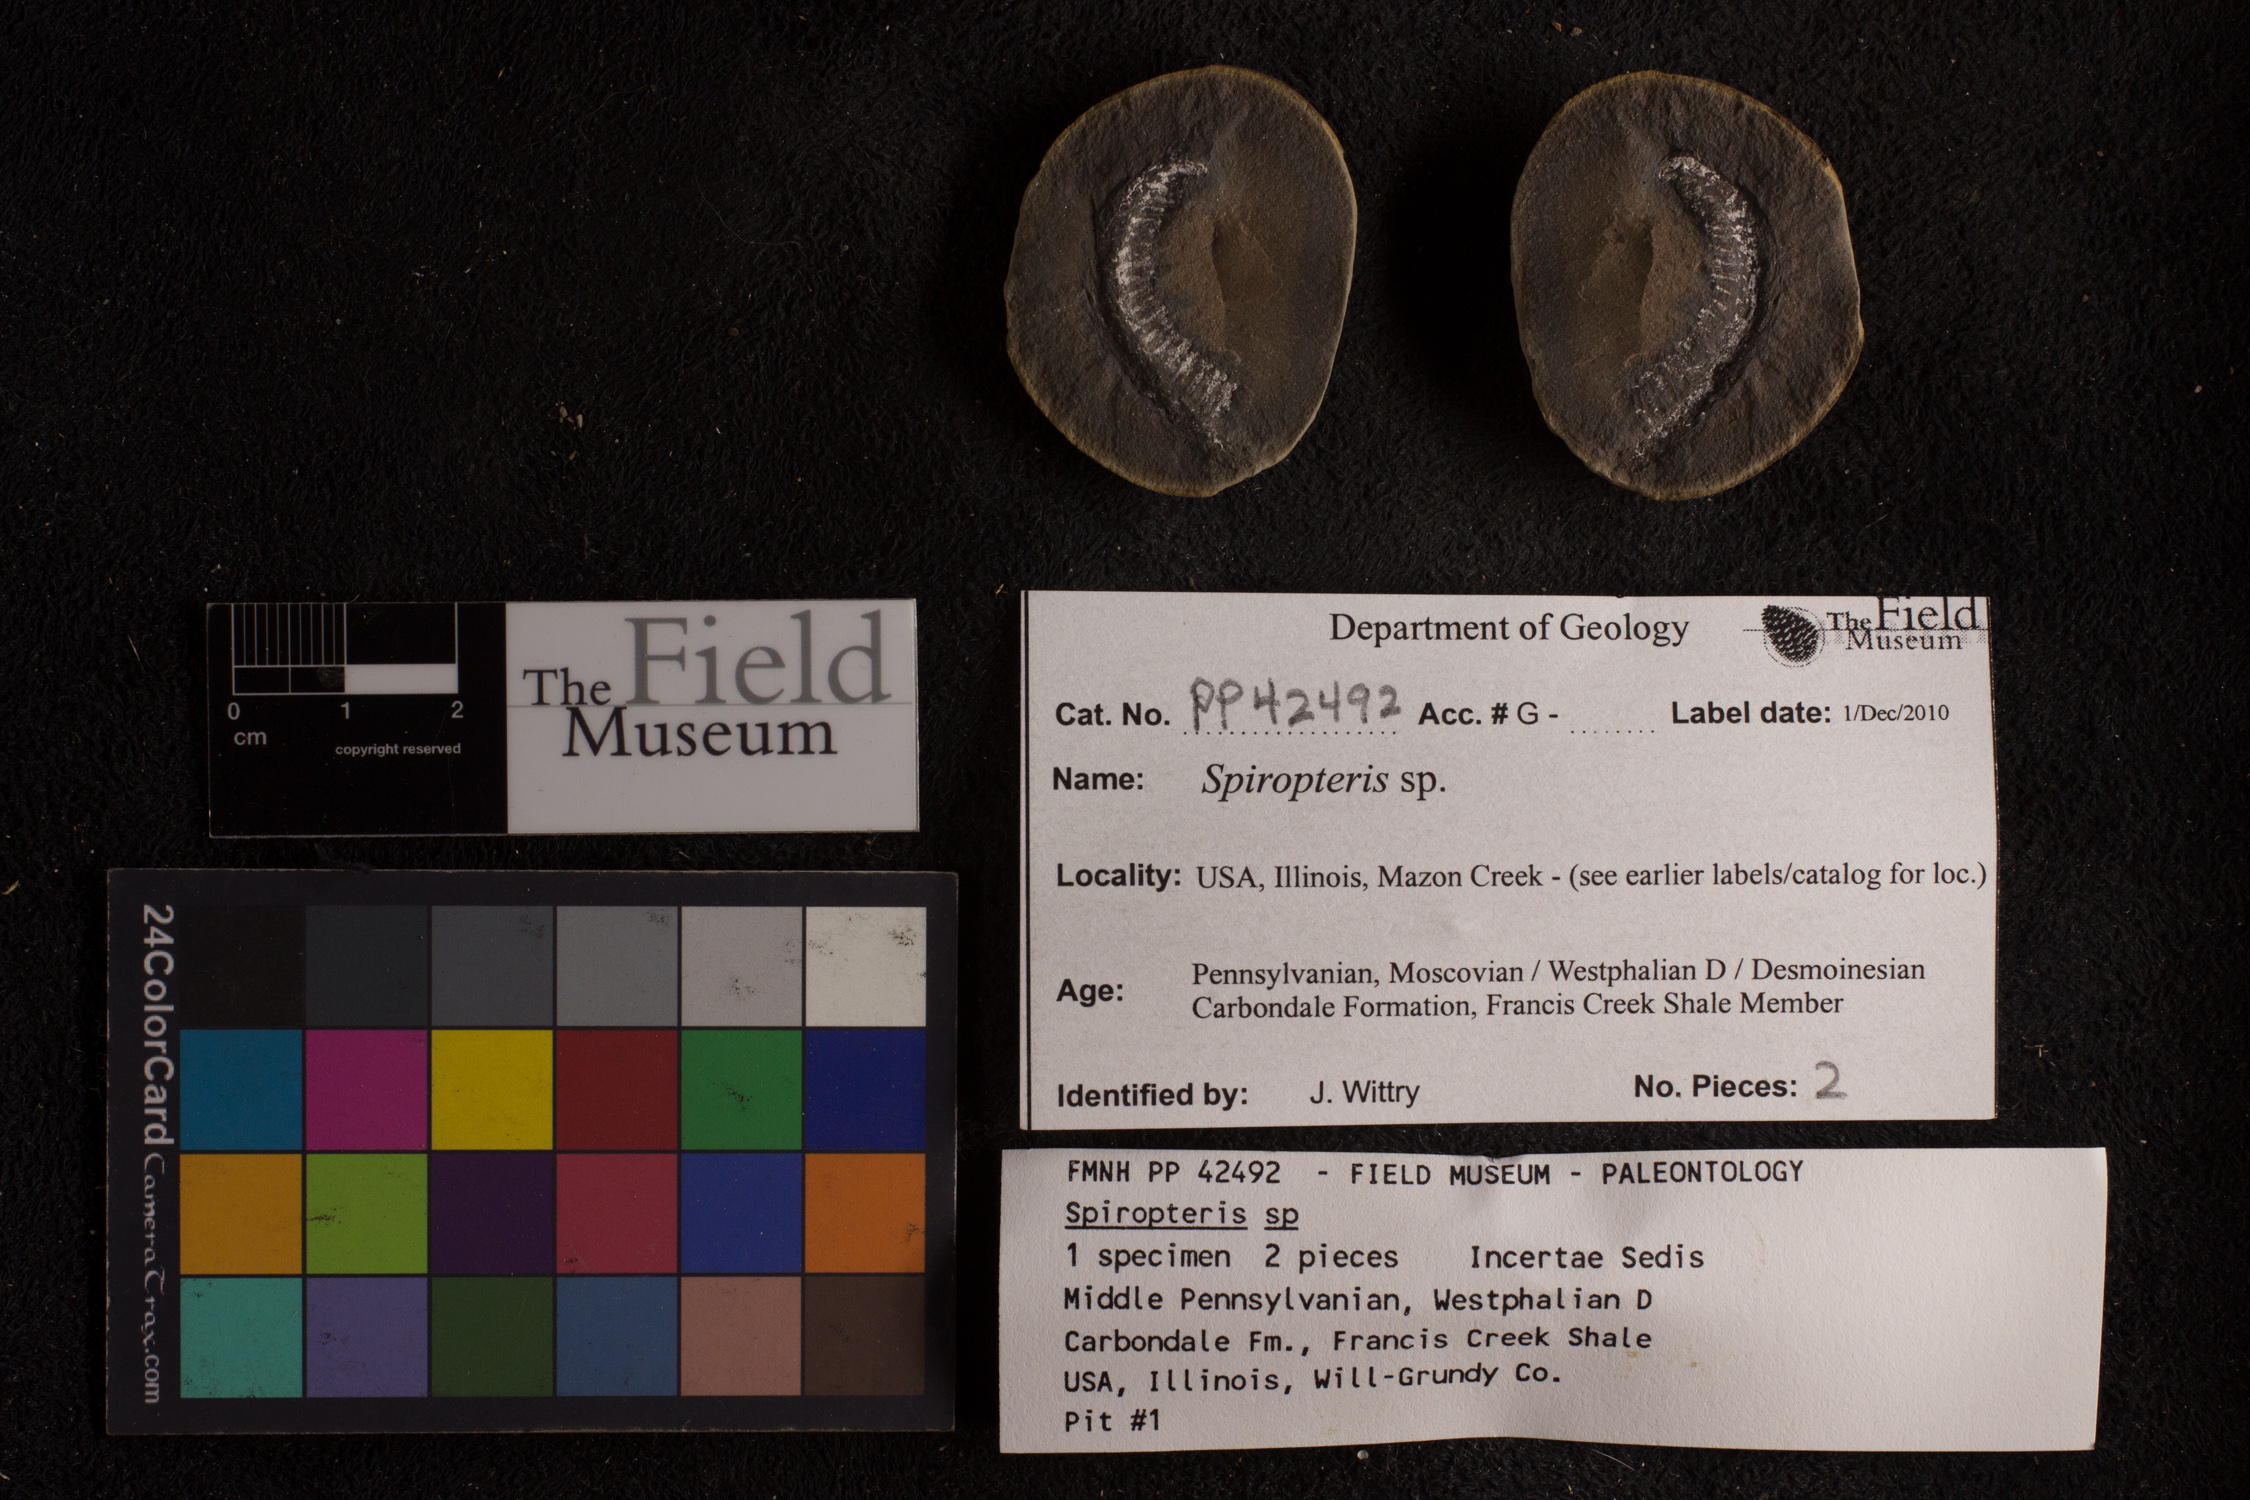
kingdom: Plantae
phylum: Tracheophyta
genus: Spiropteris
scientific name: Spiropteris
